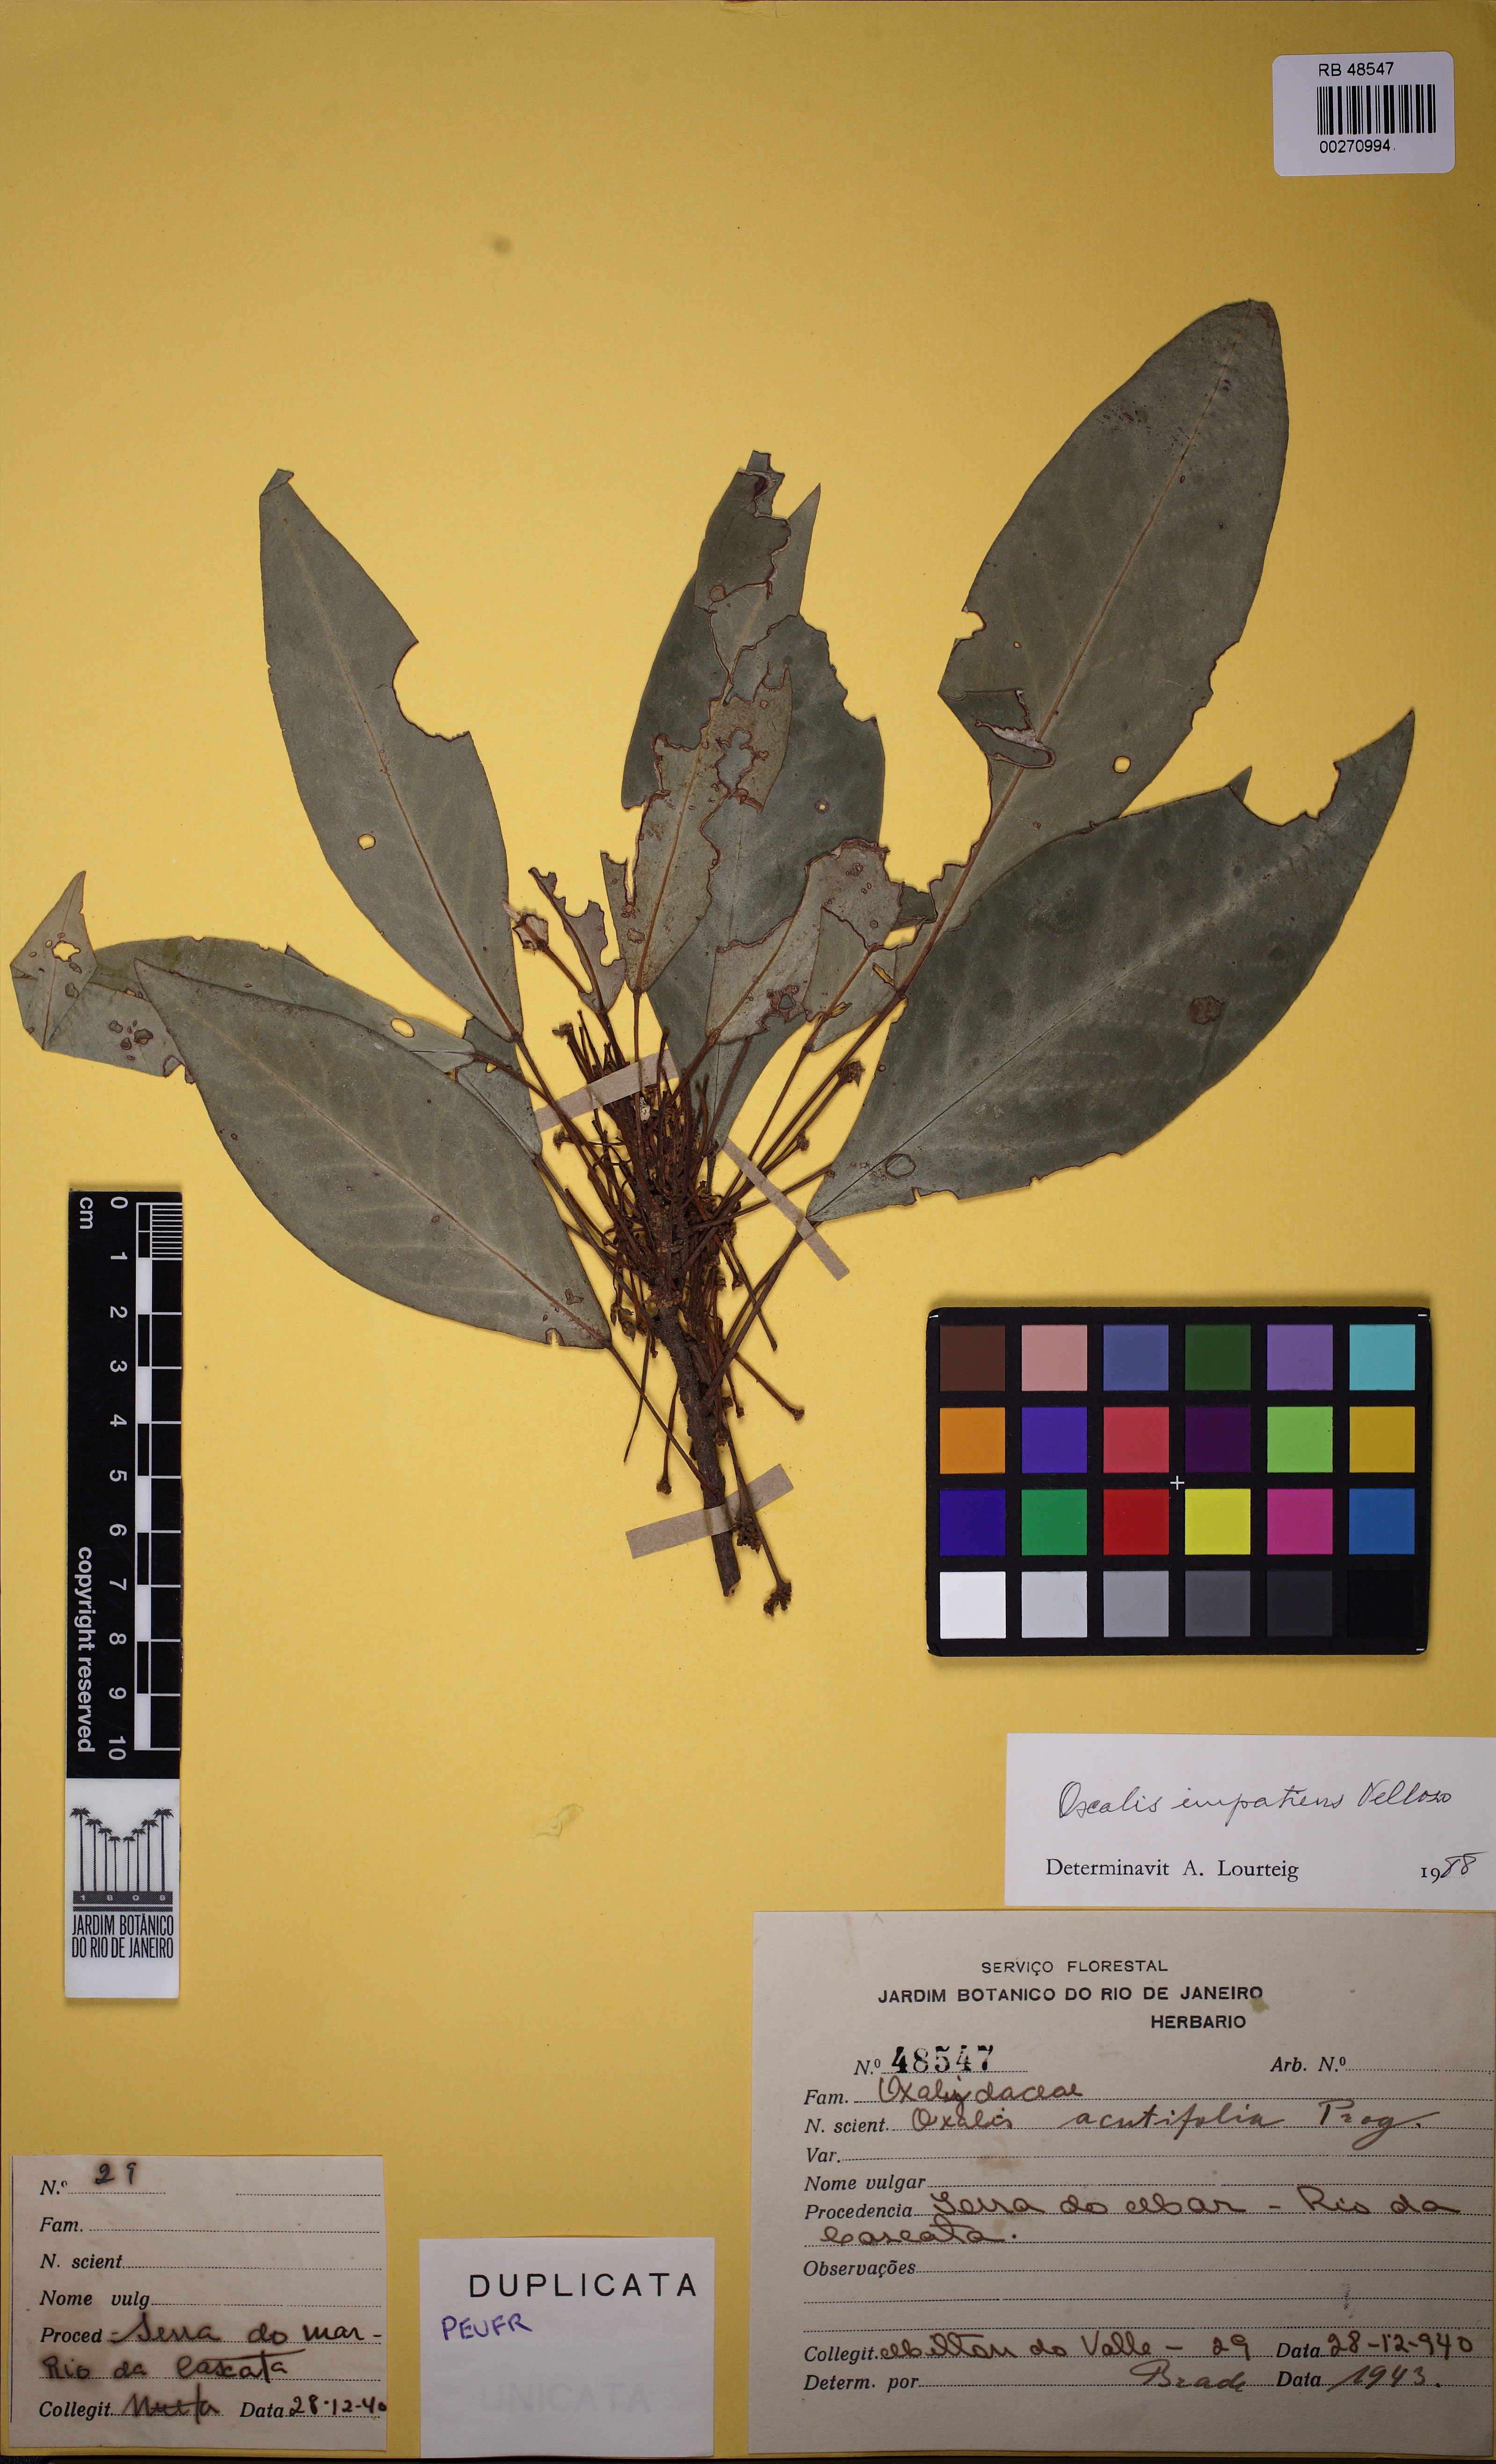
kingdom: Plantae
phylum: Tracheophyta
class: Magnoliopsida
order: Oxalidales
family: Oxalidaceae
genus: Oxalis
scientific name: Oxalis impatiens
